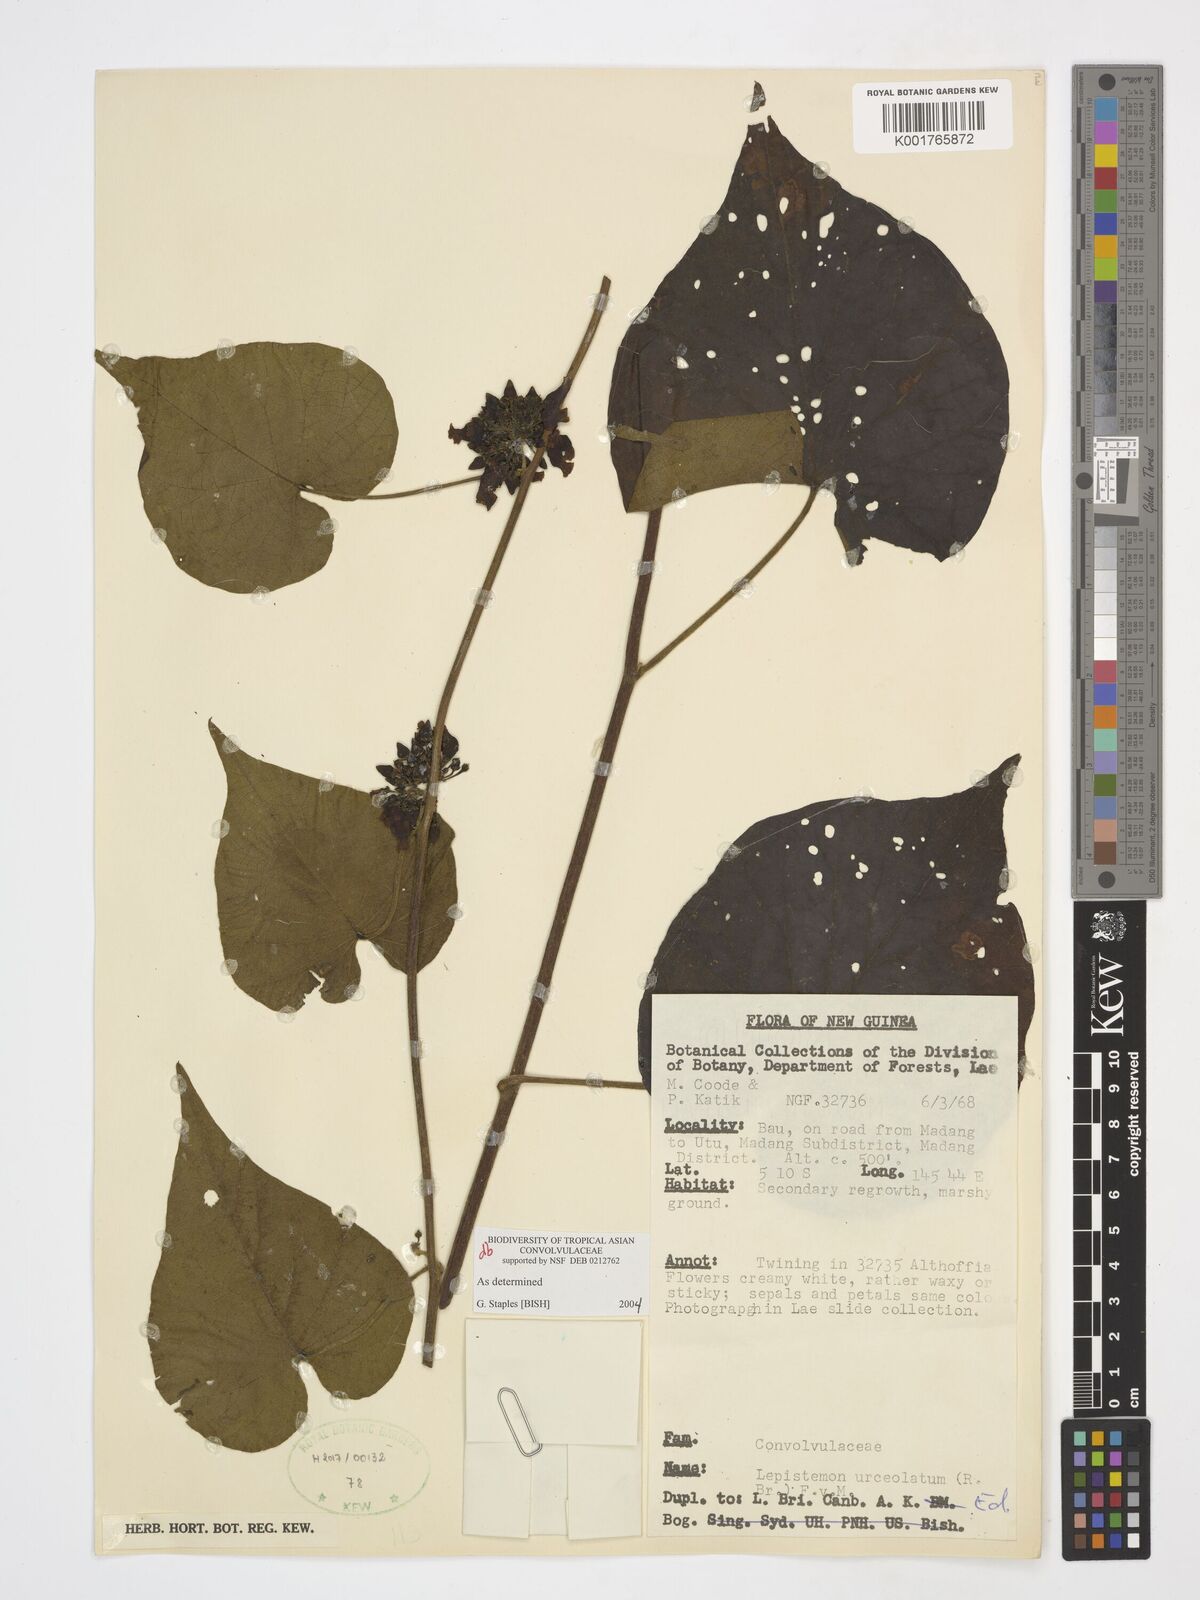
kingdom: Plantae
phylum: Tracheophyta
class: Magnoliopsida
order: Solanales
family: Convolvulaceae
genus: Lepistemon
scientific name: Lepistemon urceolatus
